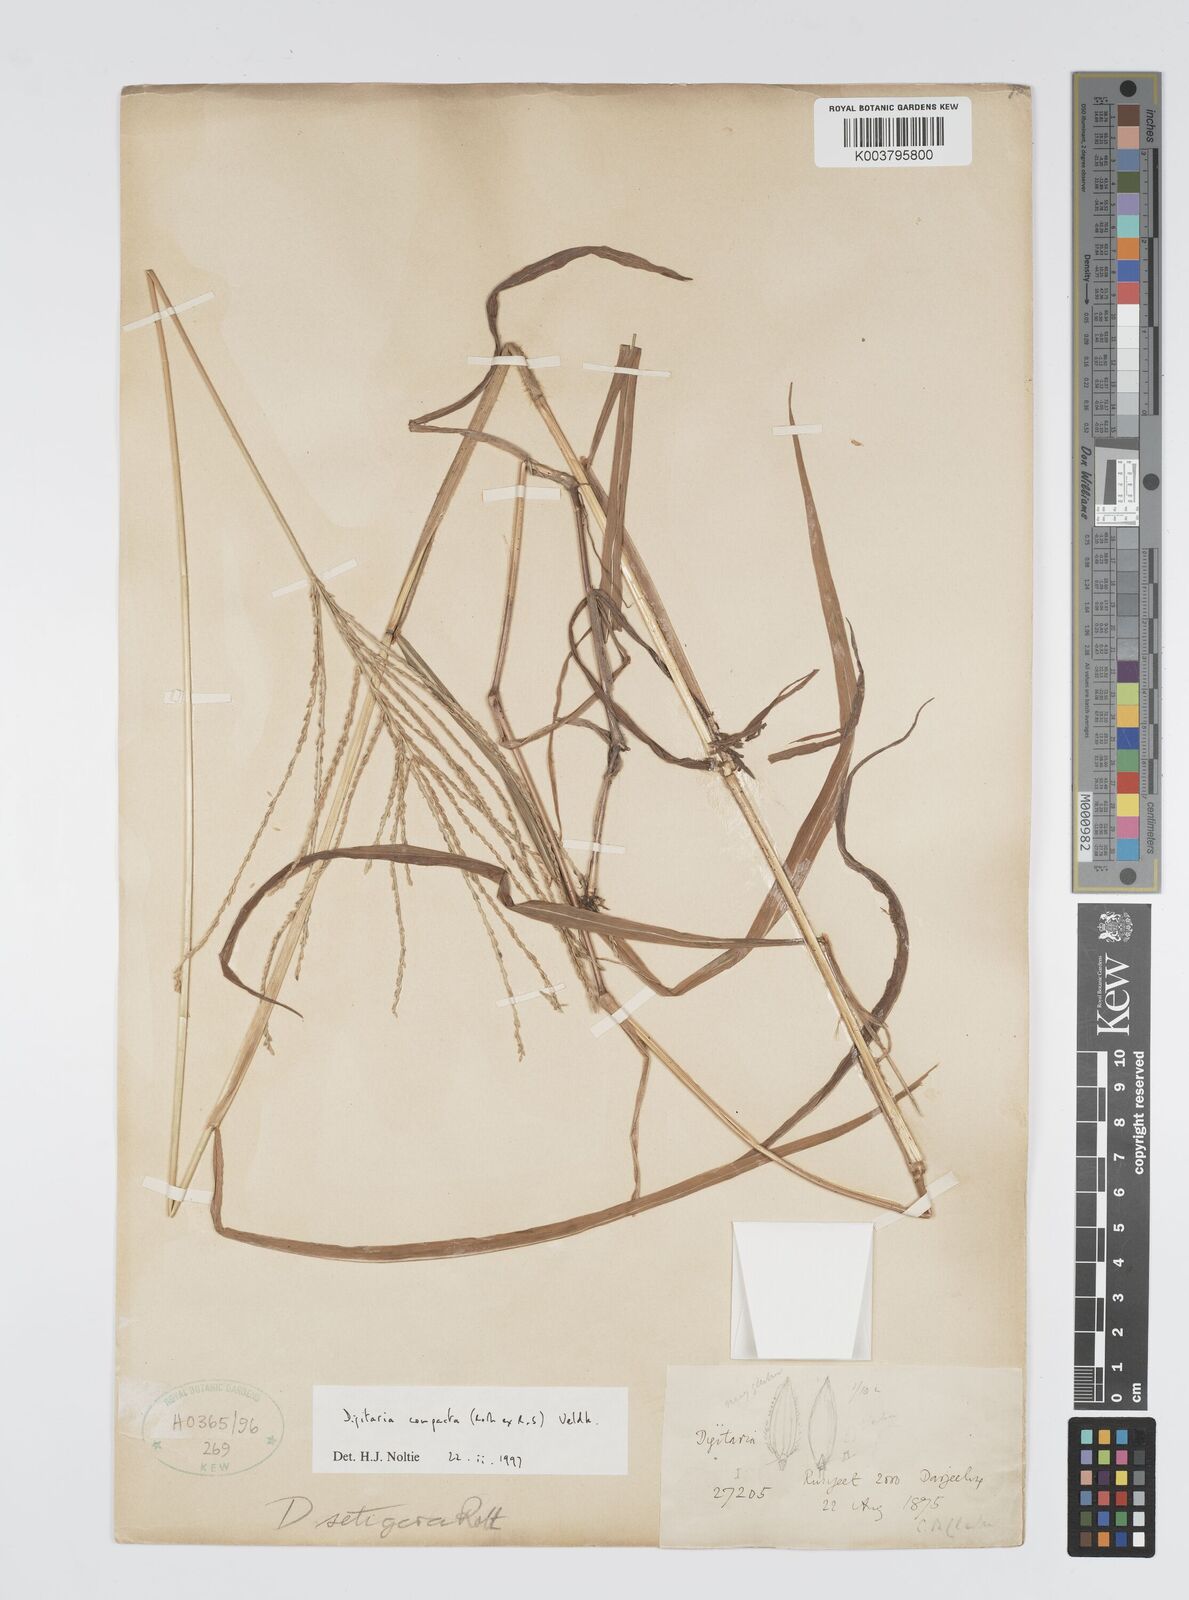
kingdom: Plantae
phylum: Tracheophyta
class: Liliopsida
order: Poales
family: Poaceae
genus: Digitaria
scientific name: Digitaria compacta
